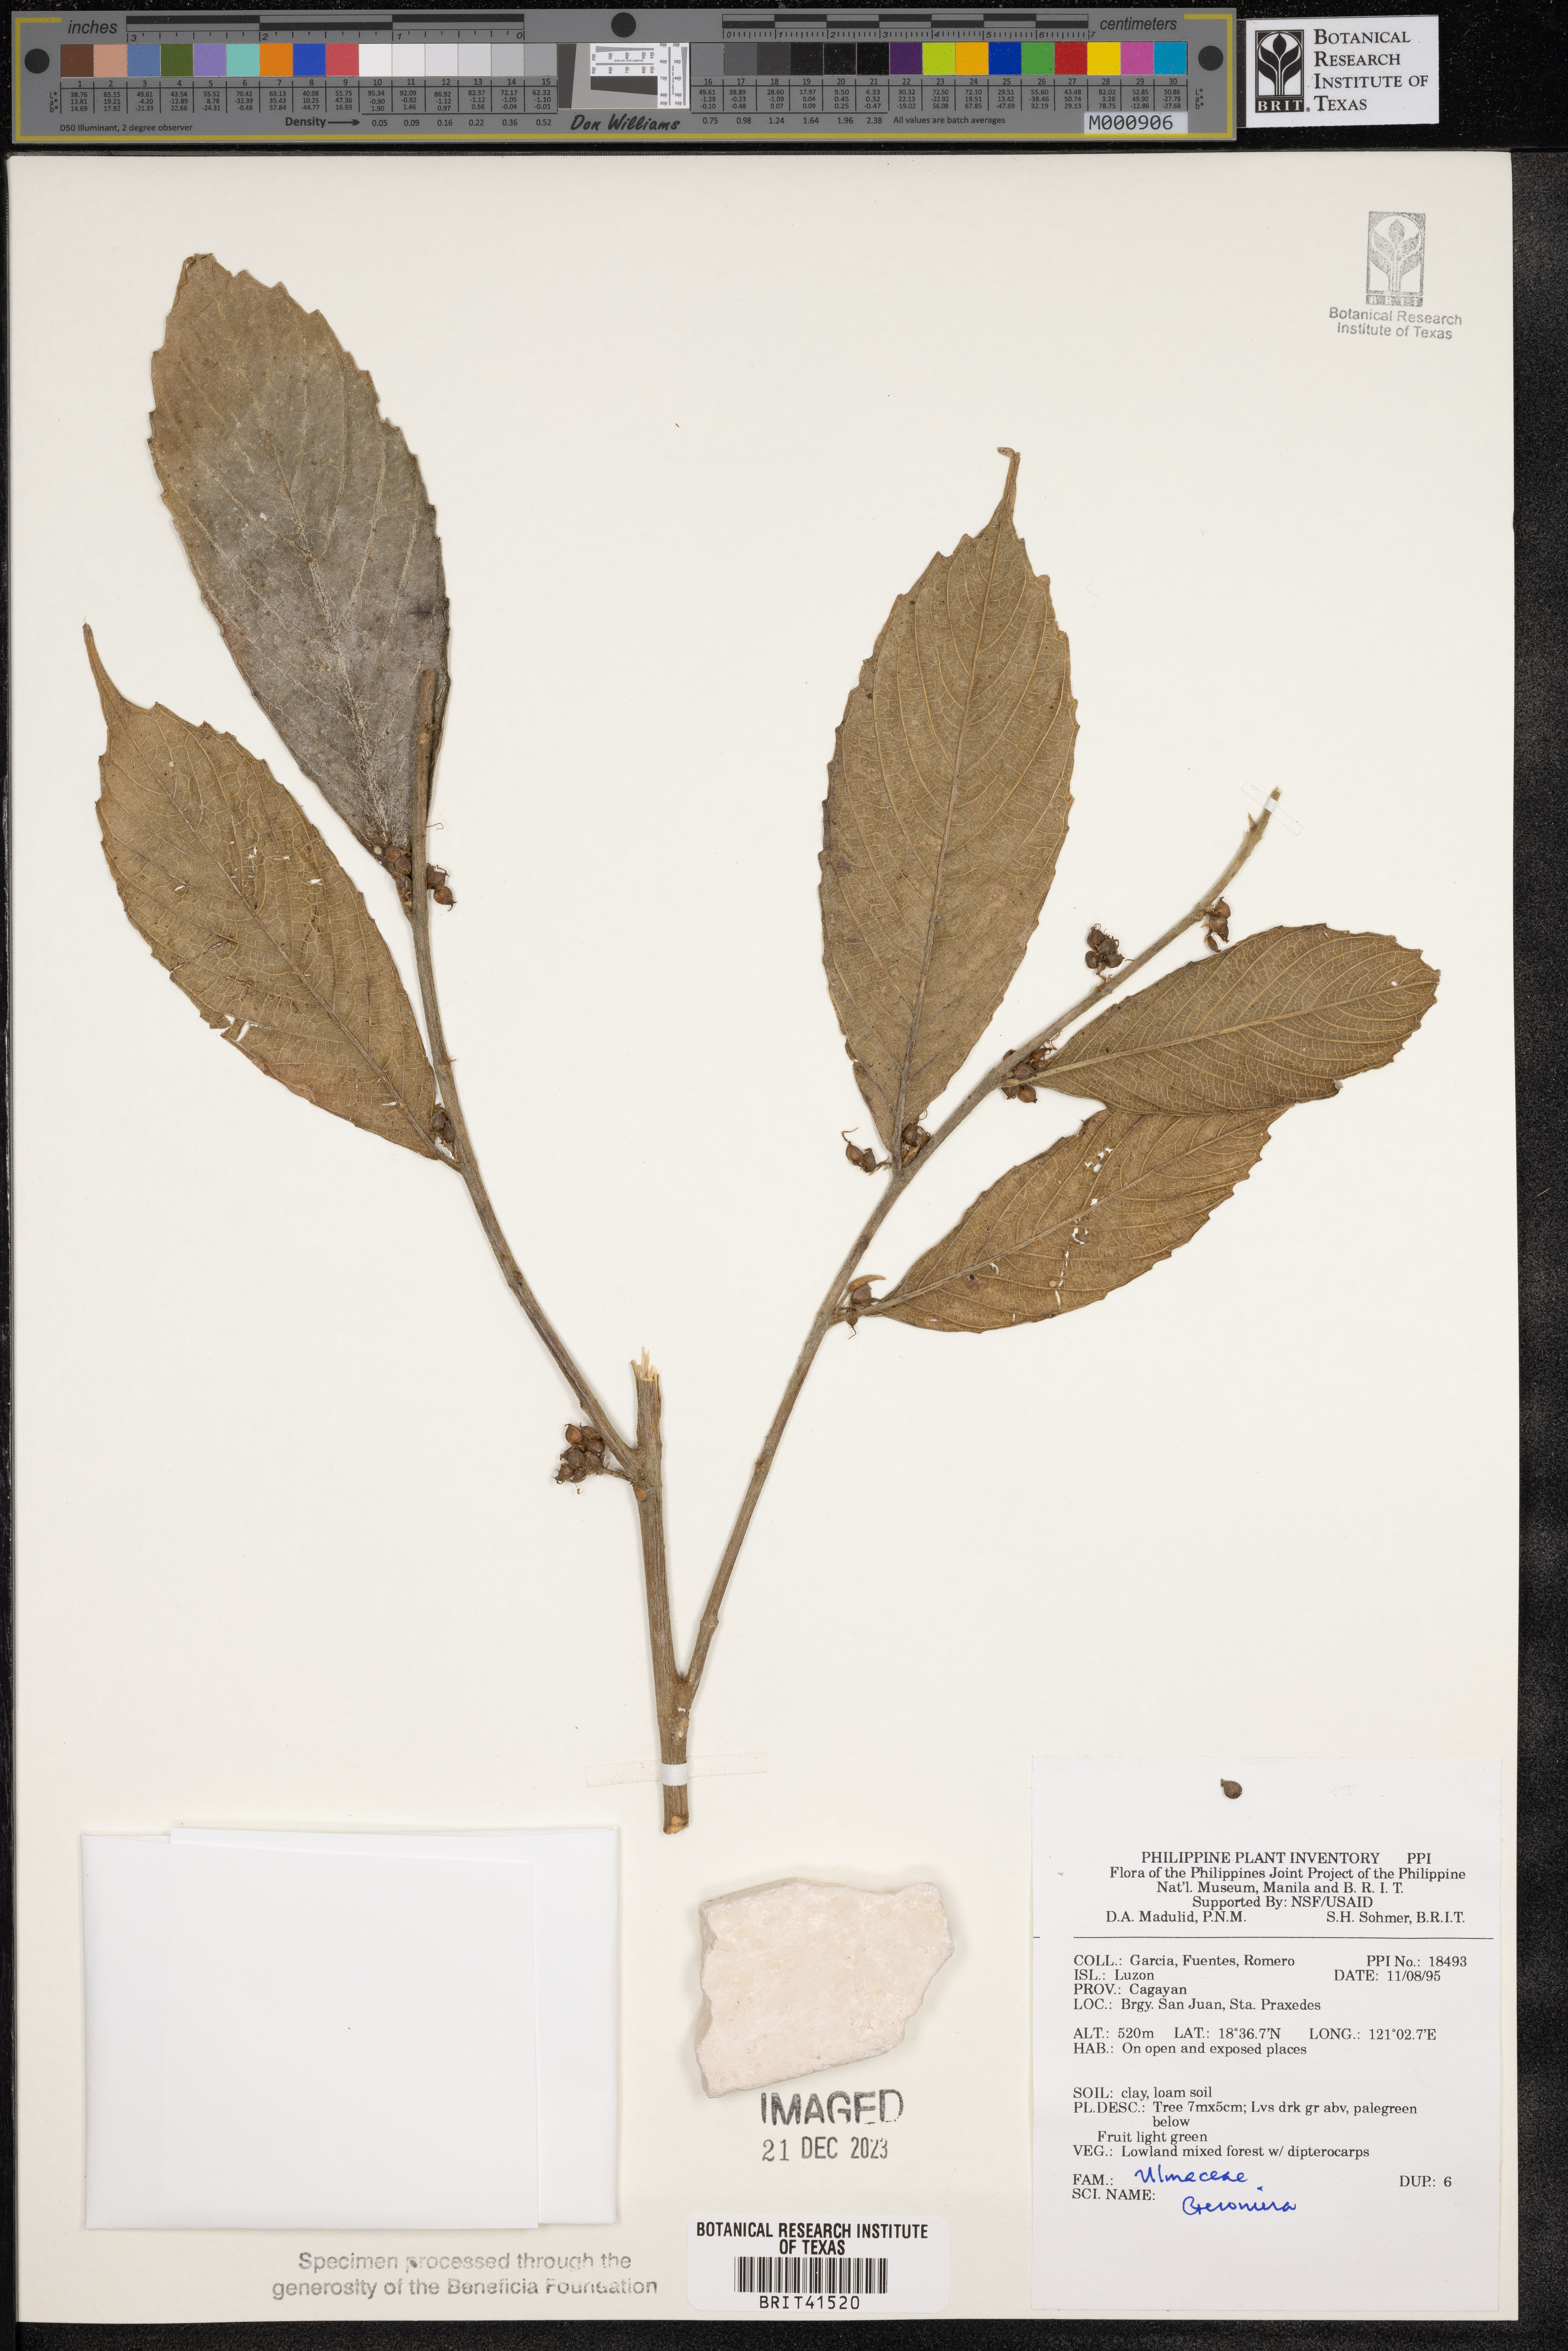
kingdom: Plantae
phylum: Tracheophyta
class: Magnoliopsida
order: Rosales
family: Cannabaceae
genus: Gironniera
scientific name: Gironniera
